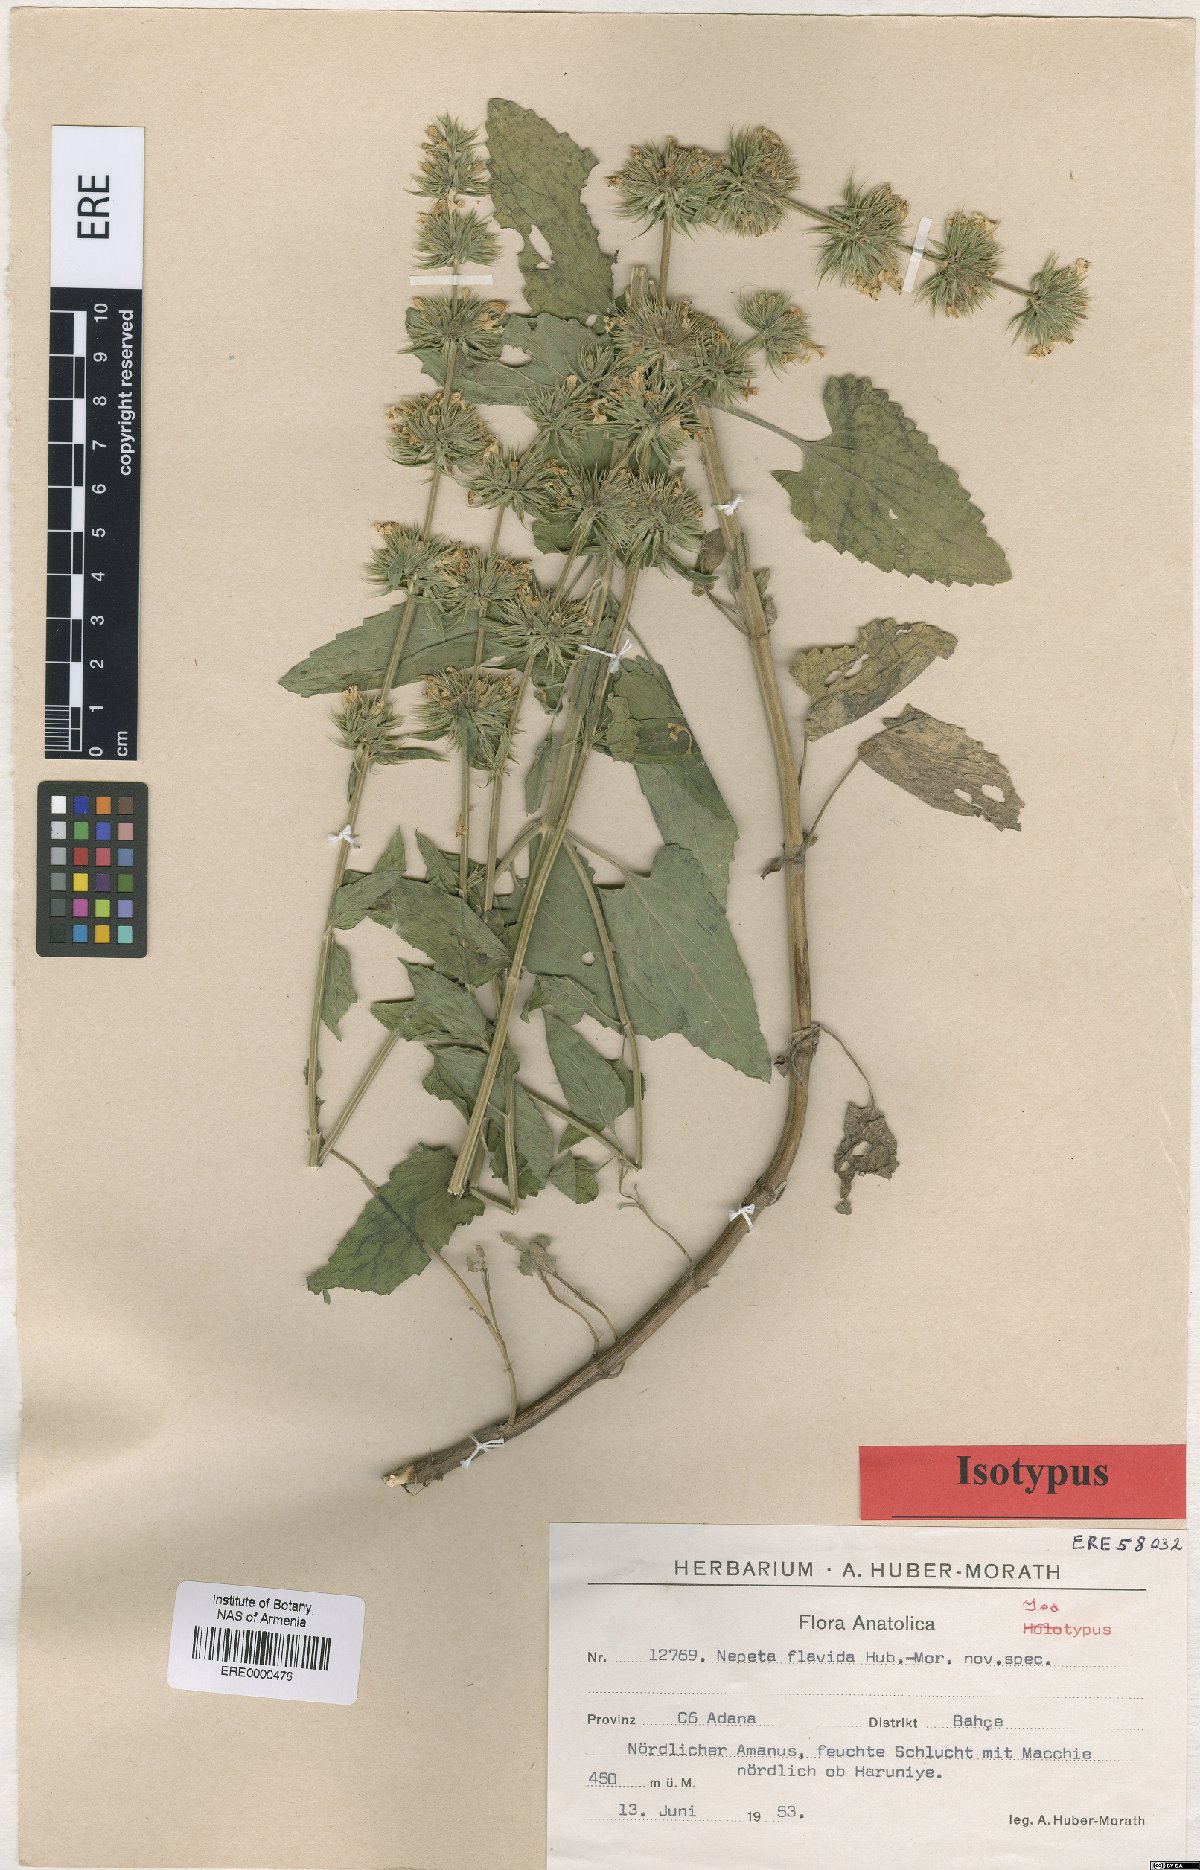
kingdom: Plantae
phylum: Tracheophyta
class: Magnoliopsida
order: Lamiales
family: Lamiaceae
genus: Nepeta
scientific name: Nepeta flavida
